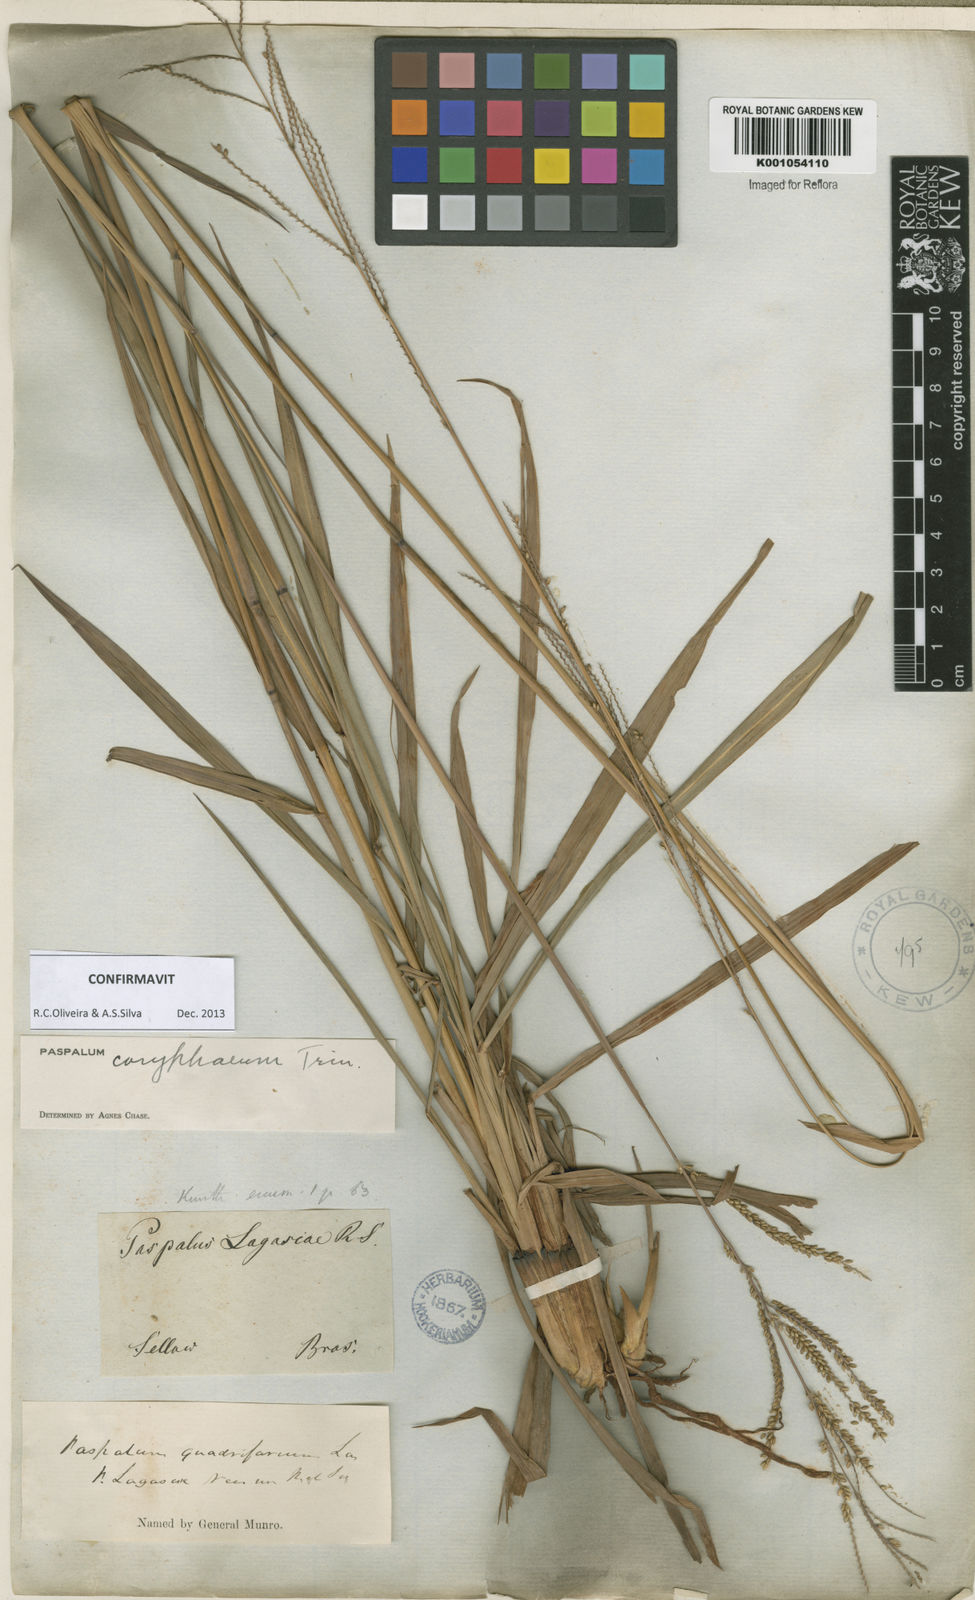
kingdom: Plantae
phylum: Tracheophyta
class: Liliopsida
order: Poales
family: Poaceae
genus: Paspalum
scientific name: Paspalum coryphaeum
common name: Emperor crowngrass
